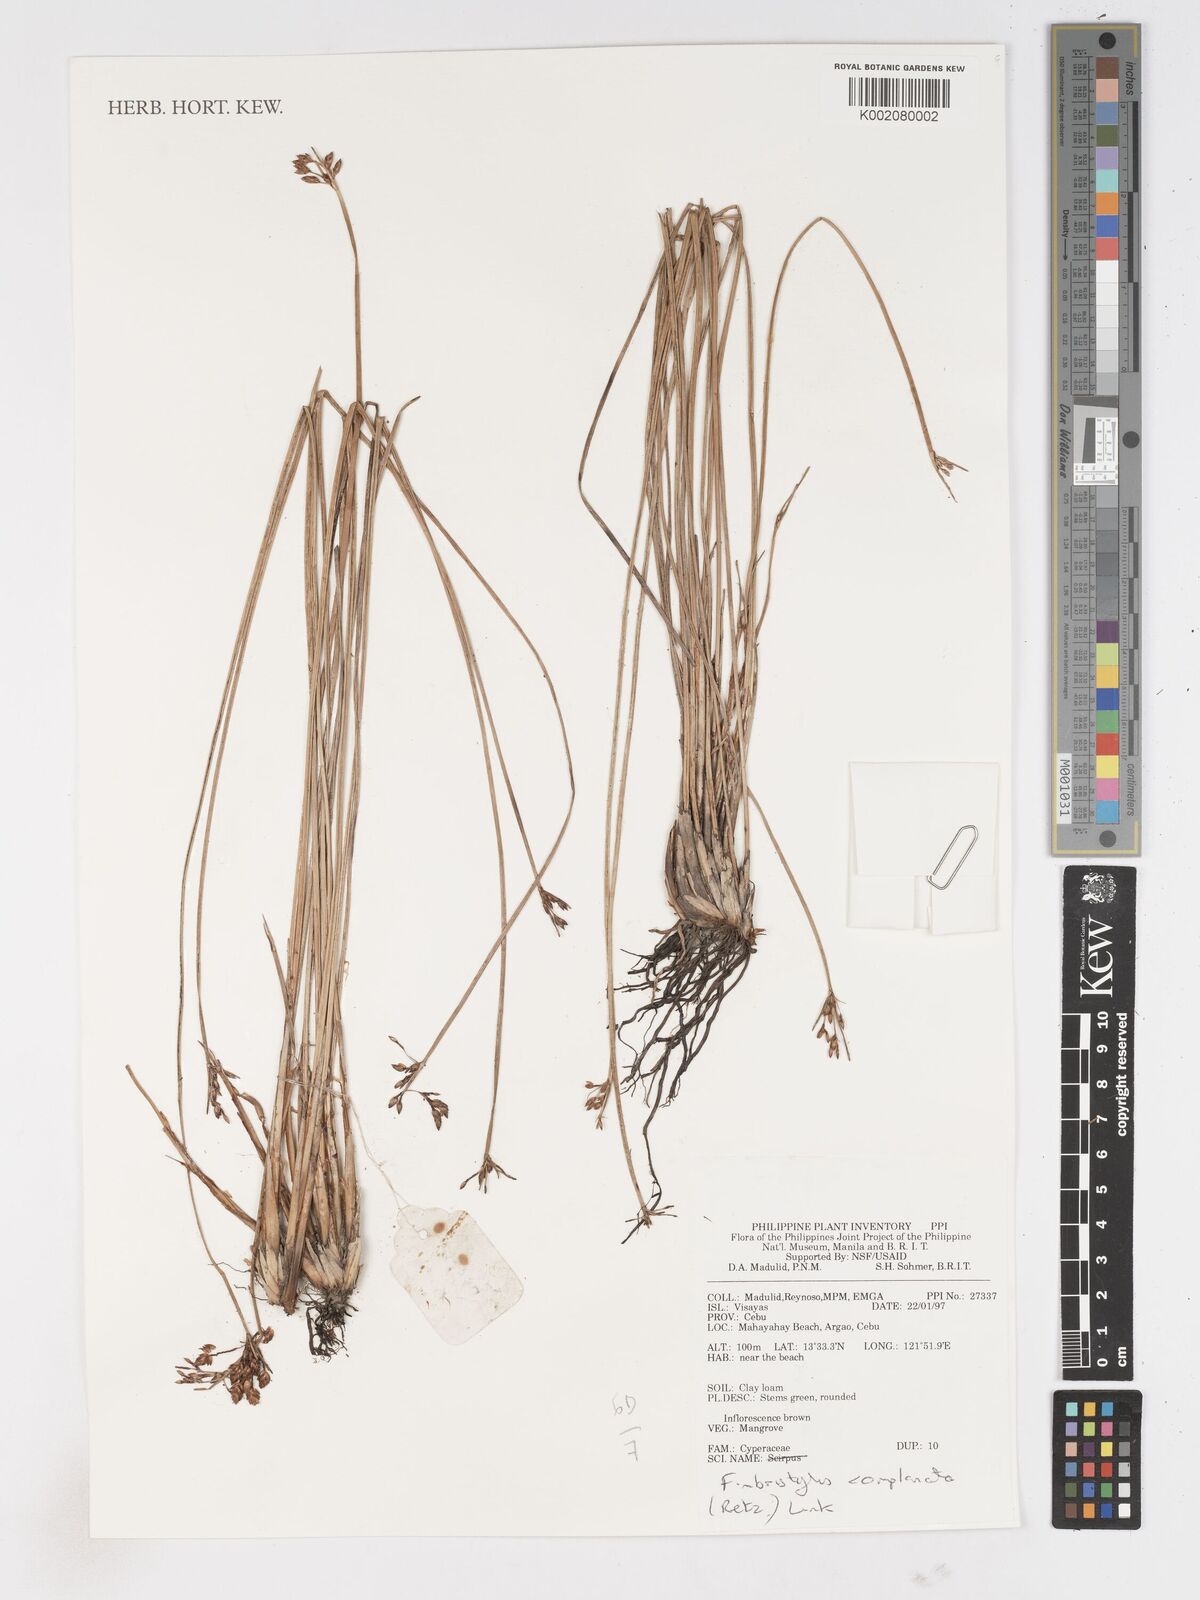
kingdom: Plantae
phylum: Tracheophyta
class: Liliopsida
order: Poales
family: Cyperaceae
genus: Fimbristylis
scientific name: Fimbristylis complanata
